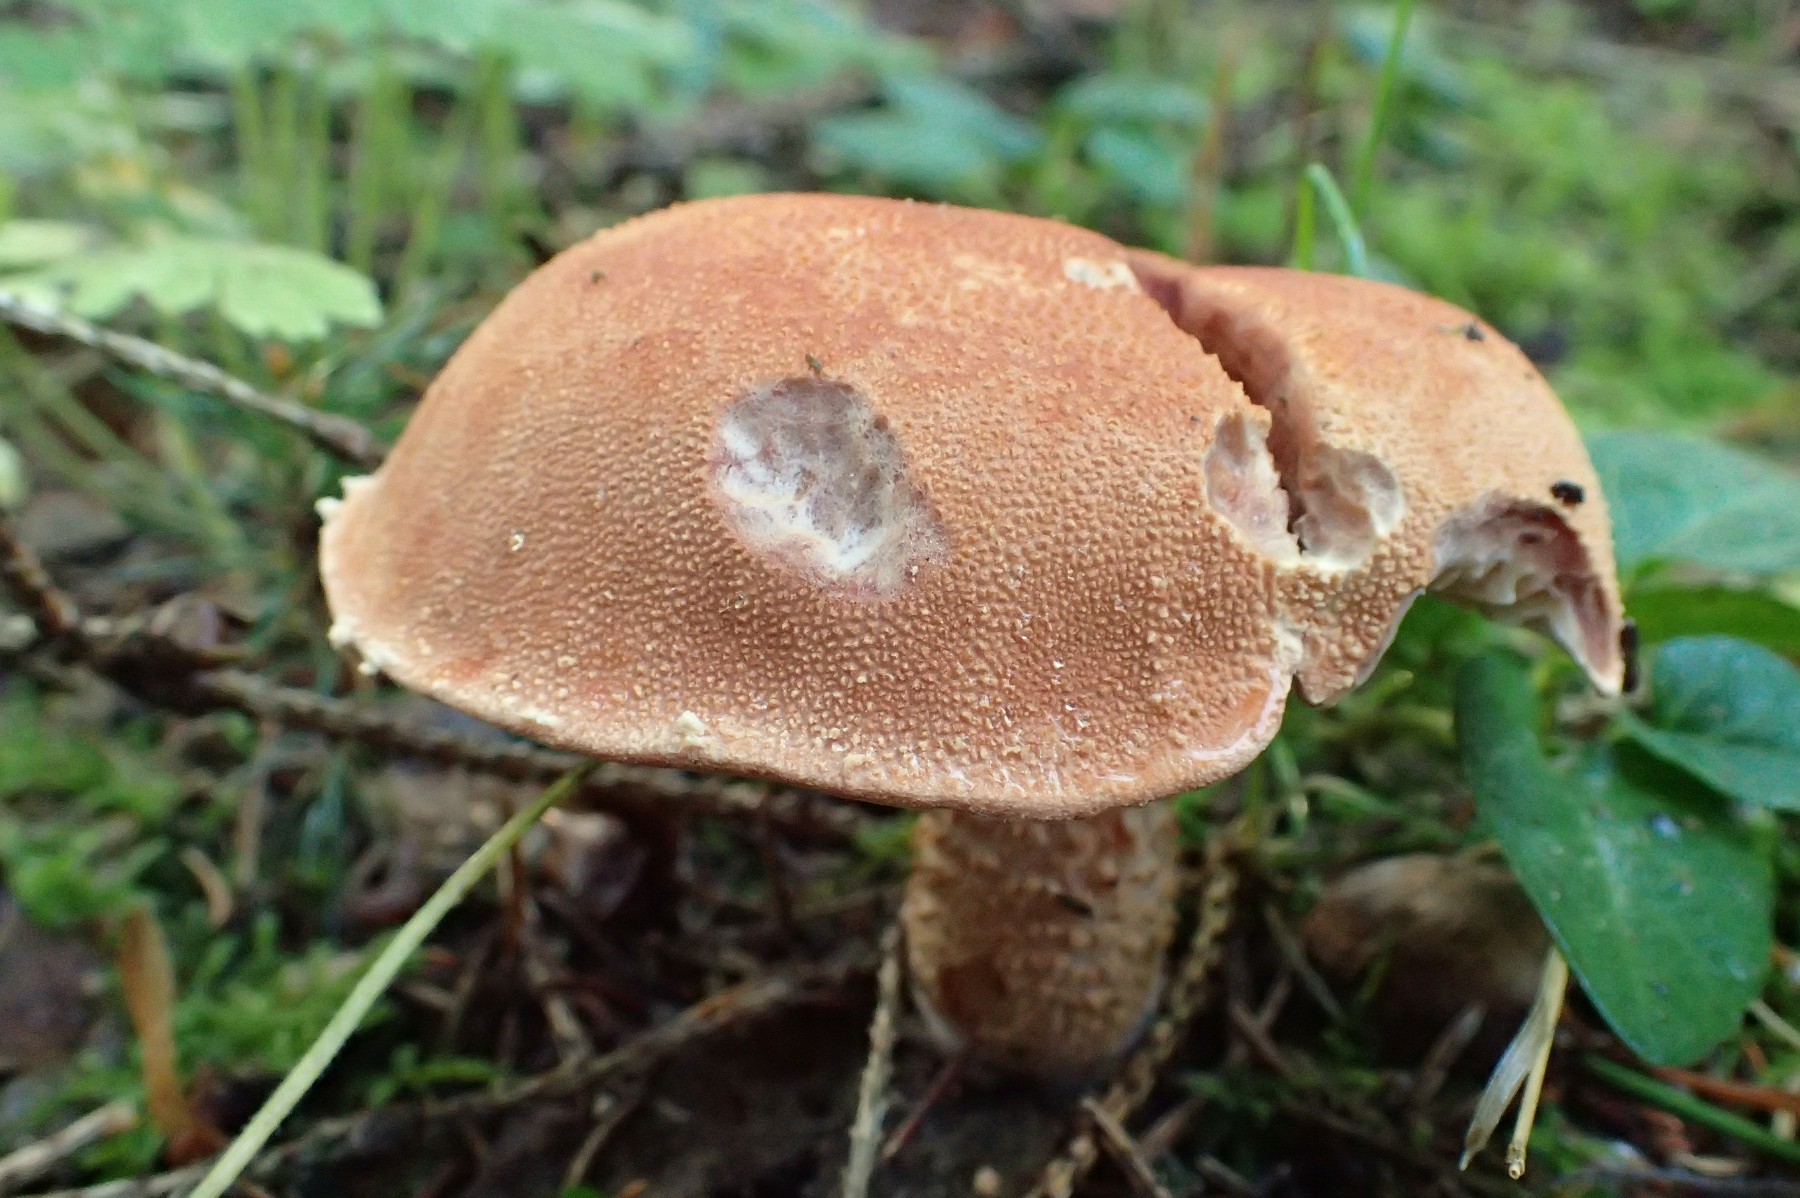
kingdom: Fungi
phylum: Basidiomycota
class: Agaricomycetes
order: Agaricales
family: Agaricaceae
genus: Cystodermella
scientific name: Cystodermella granulosa
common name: kliddet grynhat
